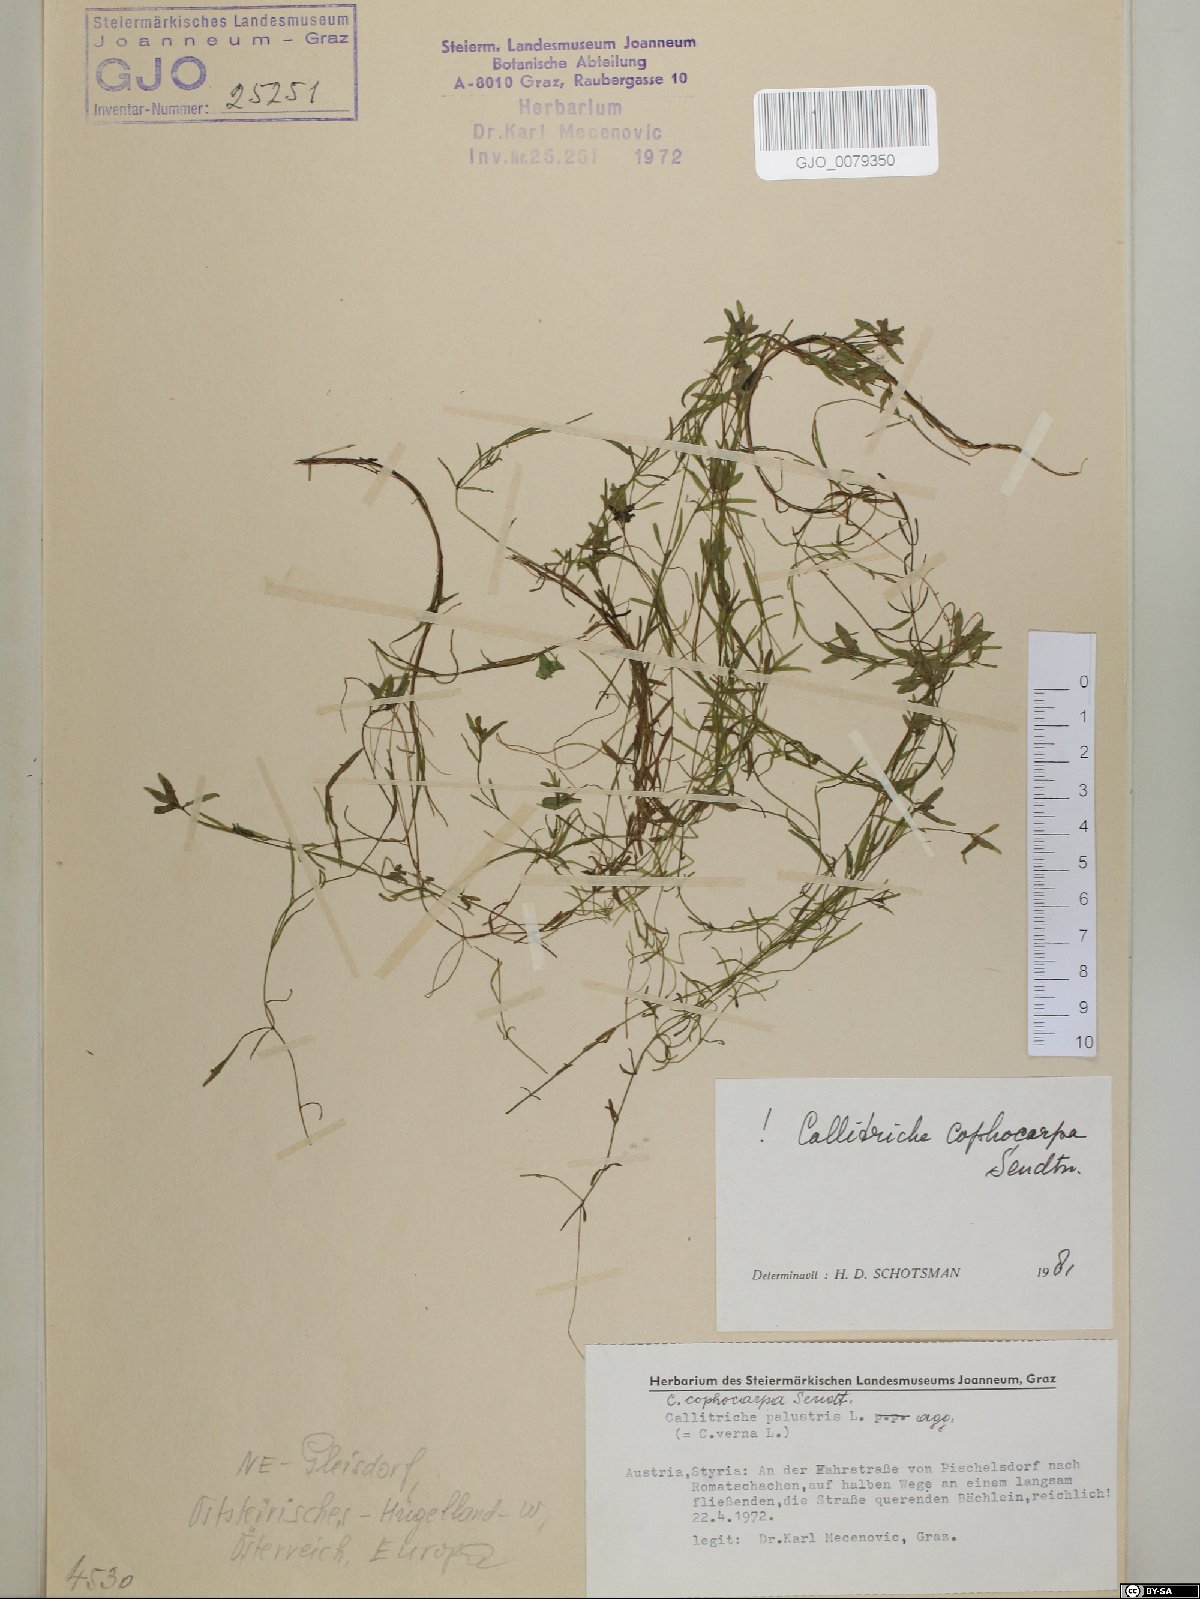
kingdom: Plantae
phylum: Tracheophyta
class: Magnoliopsida
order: Lamiales
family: Plantaginaceae
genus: Callitriche
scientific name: Callitriche cophocarpa
